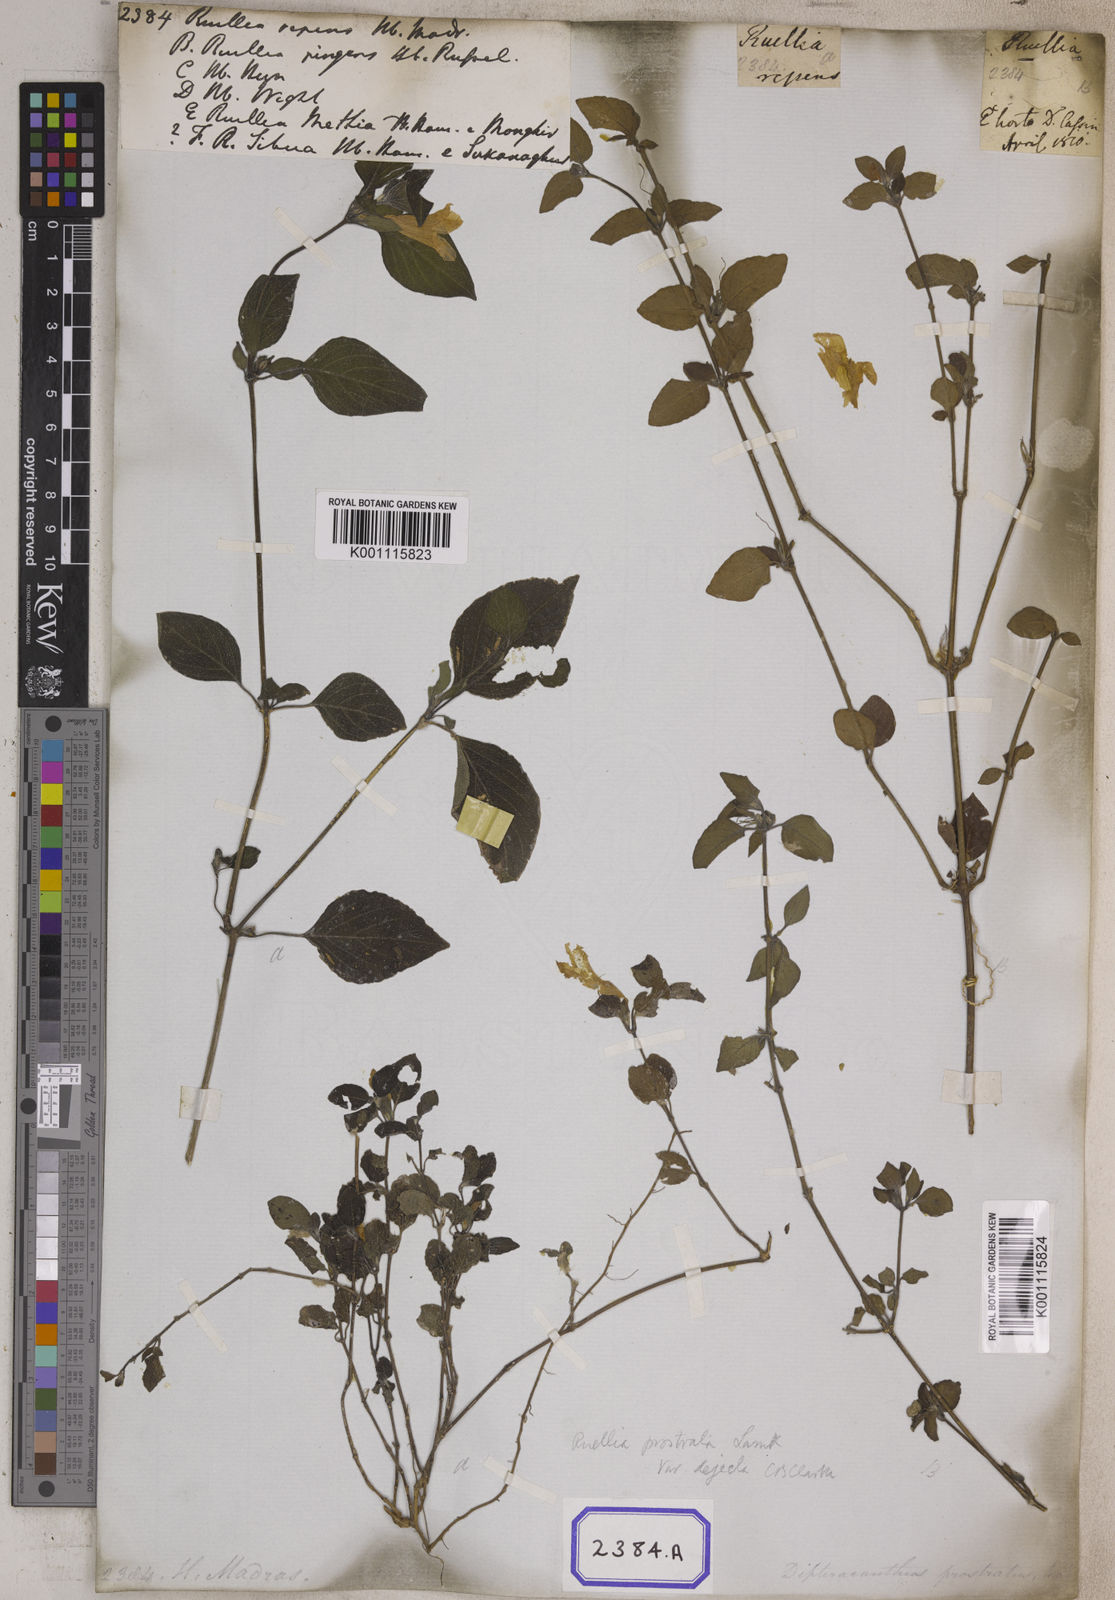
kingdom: Plantae
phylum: Tracheophyta
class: Magnoliopsida
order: Lamiales
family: Acanthaceae
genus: Ruellia
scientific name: Ruellia prostrata
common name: Prostrate wild petunia
